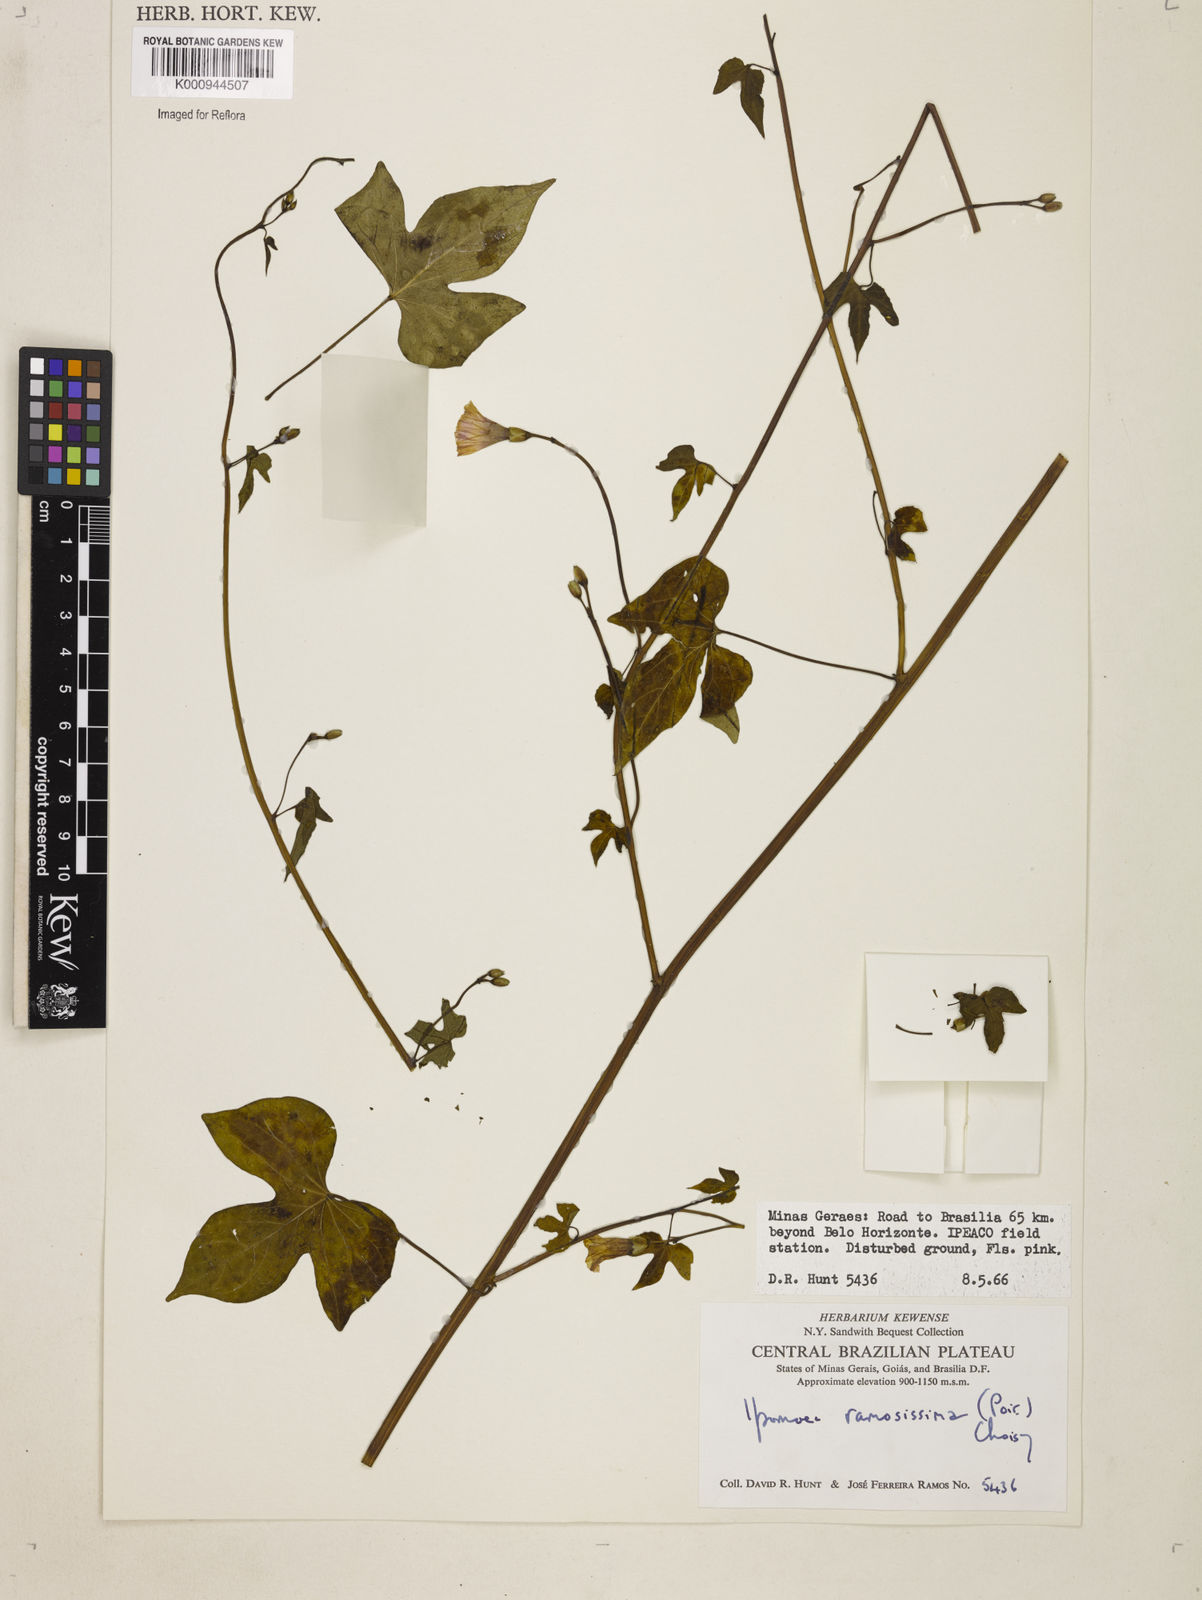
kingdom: Plantae
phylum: Tracheophyta
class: Magnoliopsida
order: Solanales
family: Convolvulaceae
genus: Ipomoea
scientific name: Ipomoea ramosissima
